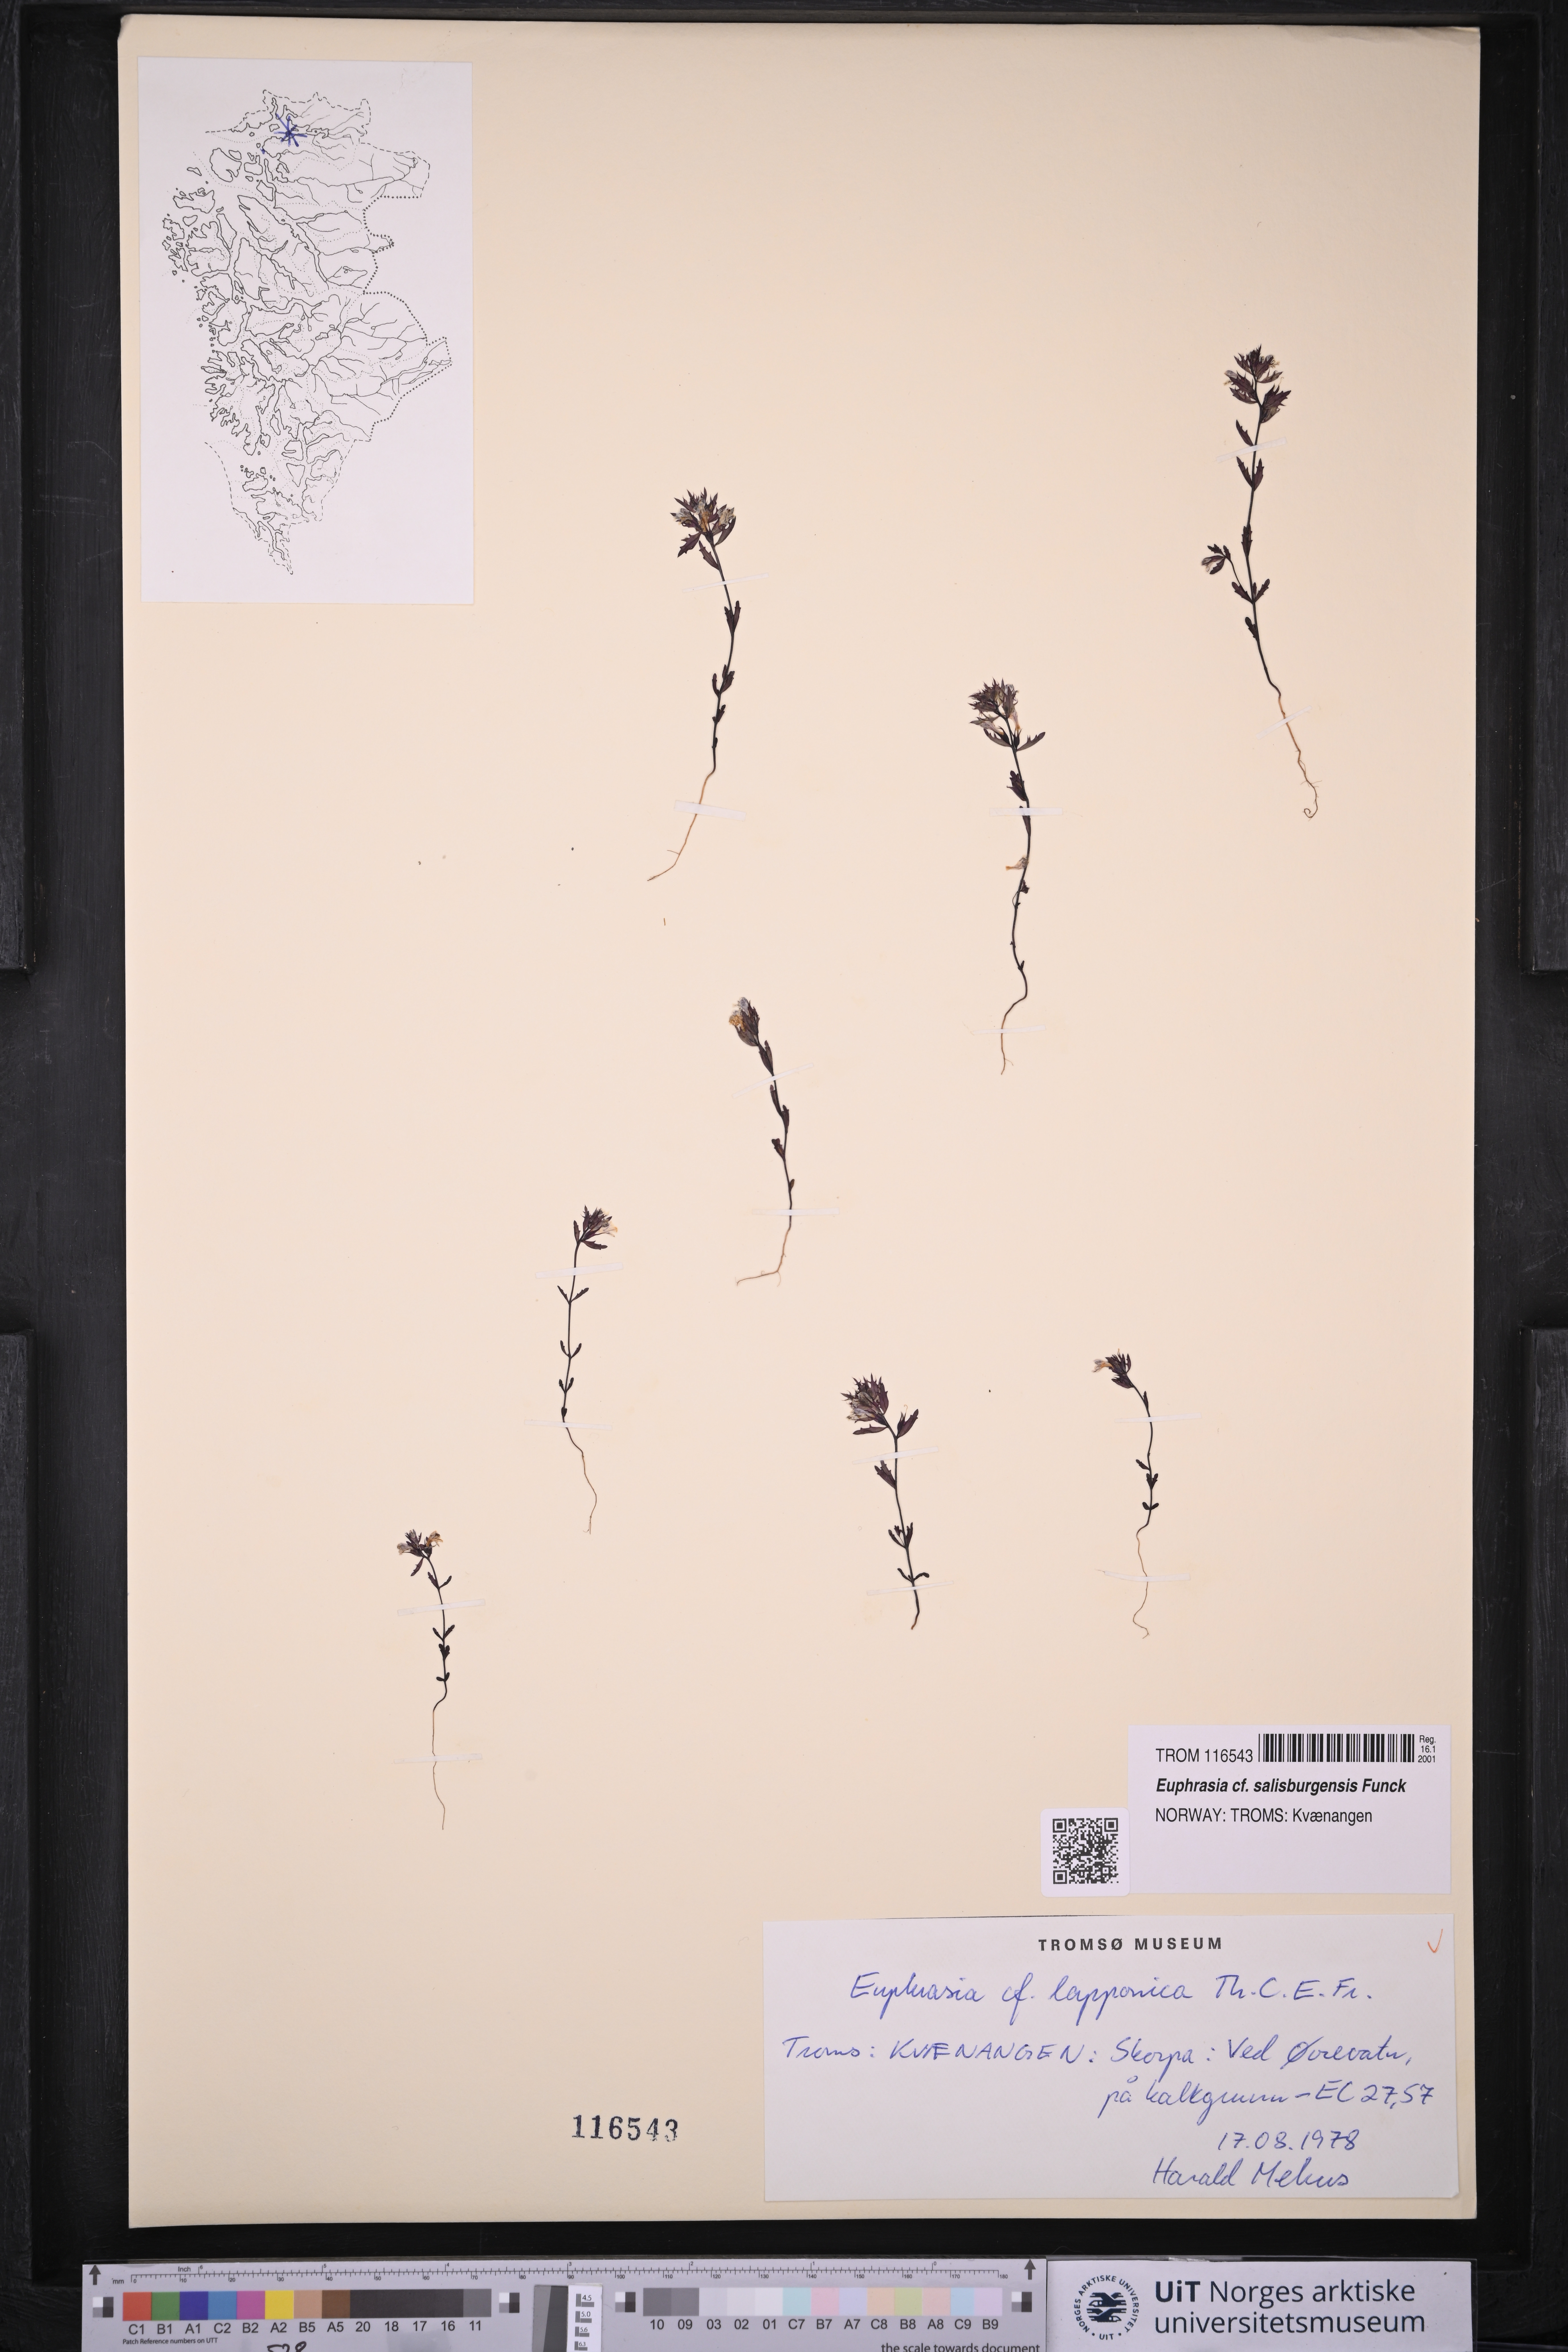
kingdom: Plantae
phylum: Tracheophyta
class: Magnoliopsida
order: Lamiales
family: Orobanchaceae
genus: Euphrasia
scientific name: Euphrasia salisburgensis
